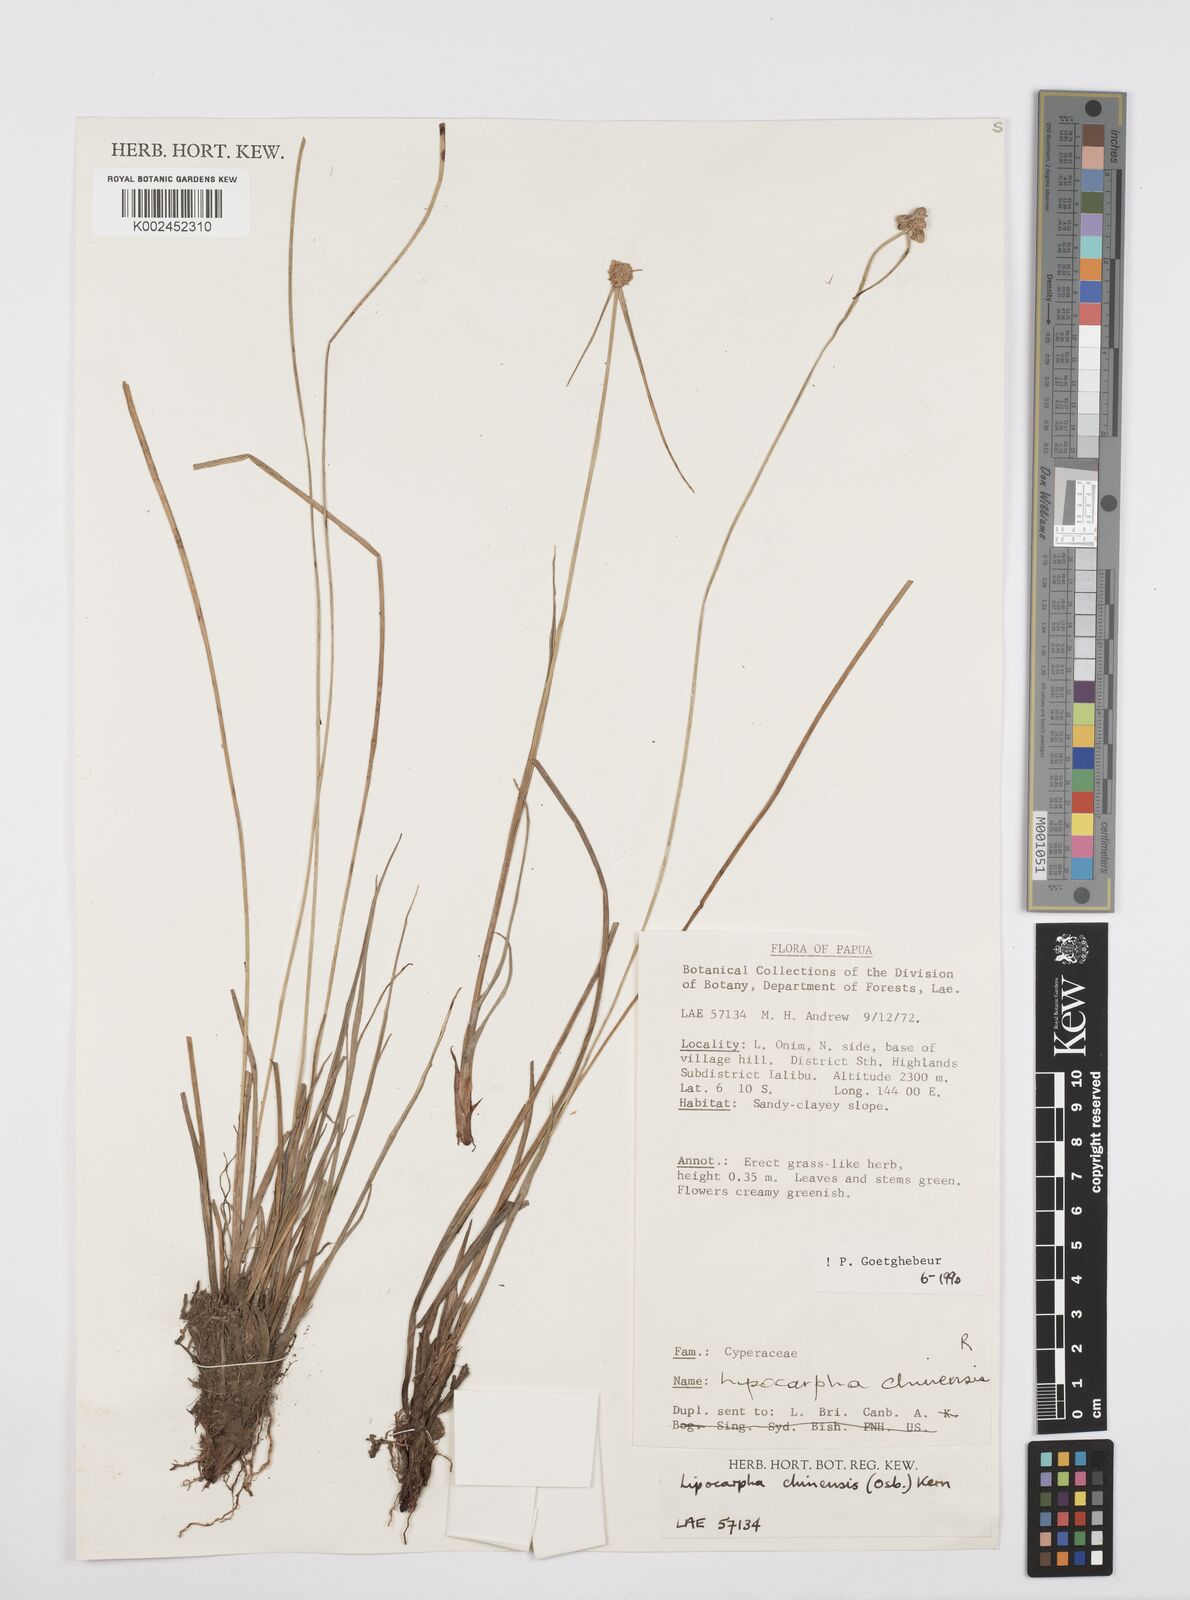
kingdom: Plantae
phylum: Tracheophyta
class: Liliopsida
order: Poales
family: Cyperaceae
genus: Cyperus
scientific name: Cyperus
